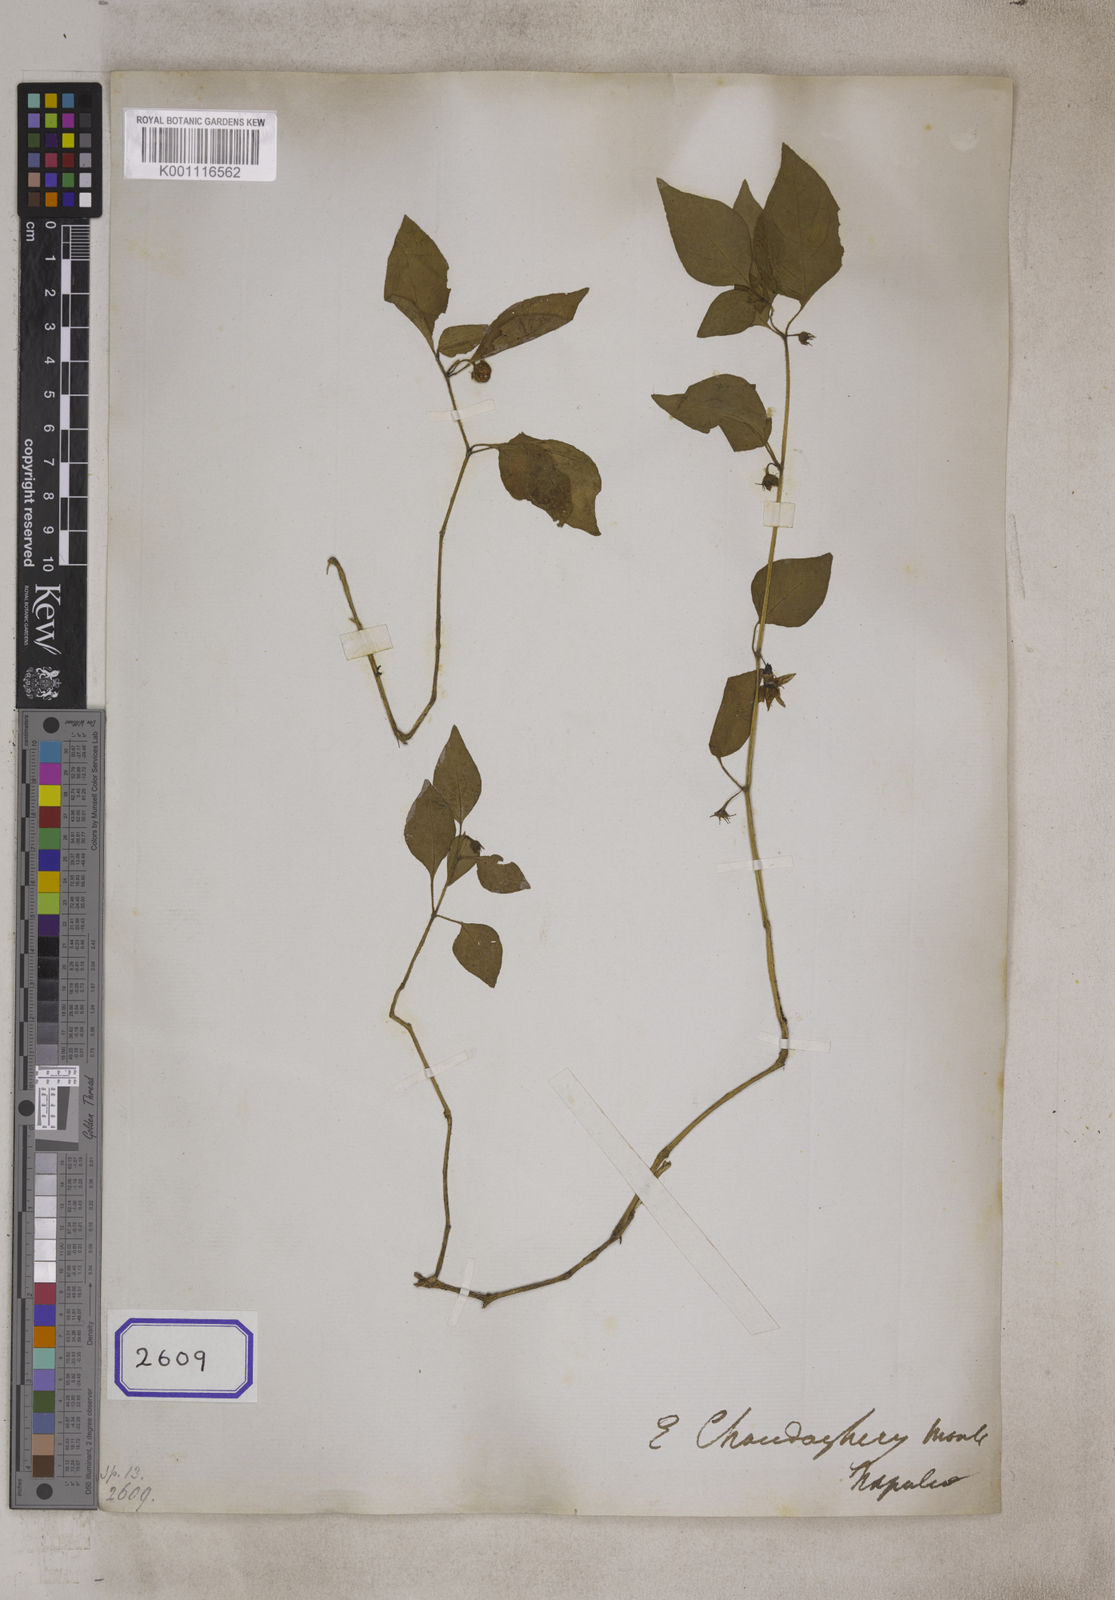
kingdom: Plantae
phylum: Tracheophyta
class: Magnoliopsida
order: Solanales
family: Solanaceae
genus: Lycianthes
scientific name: Lycianthes lysimachioides
